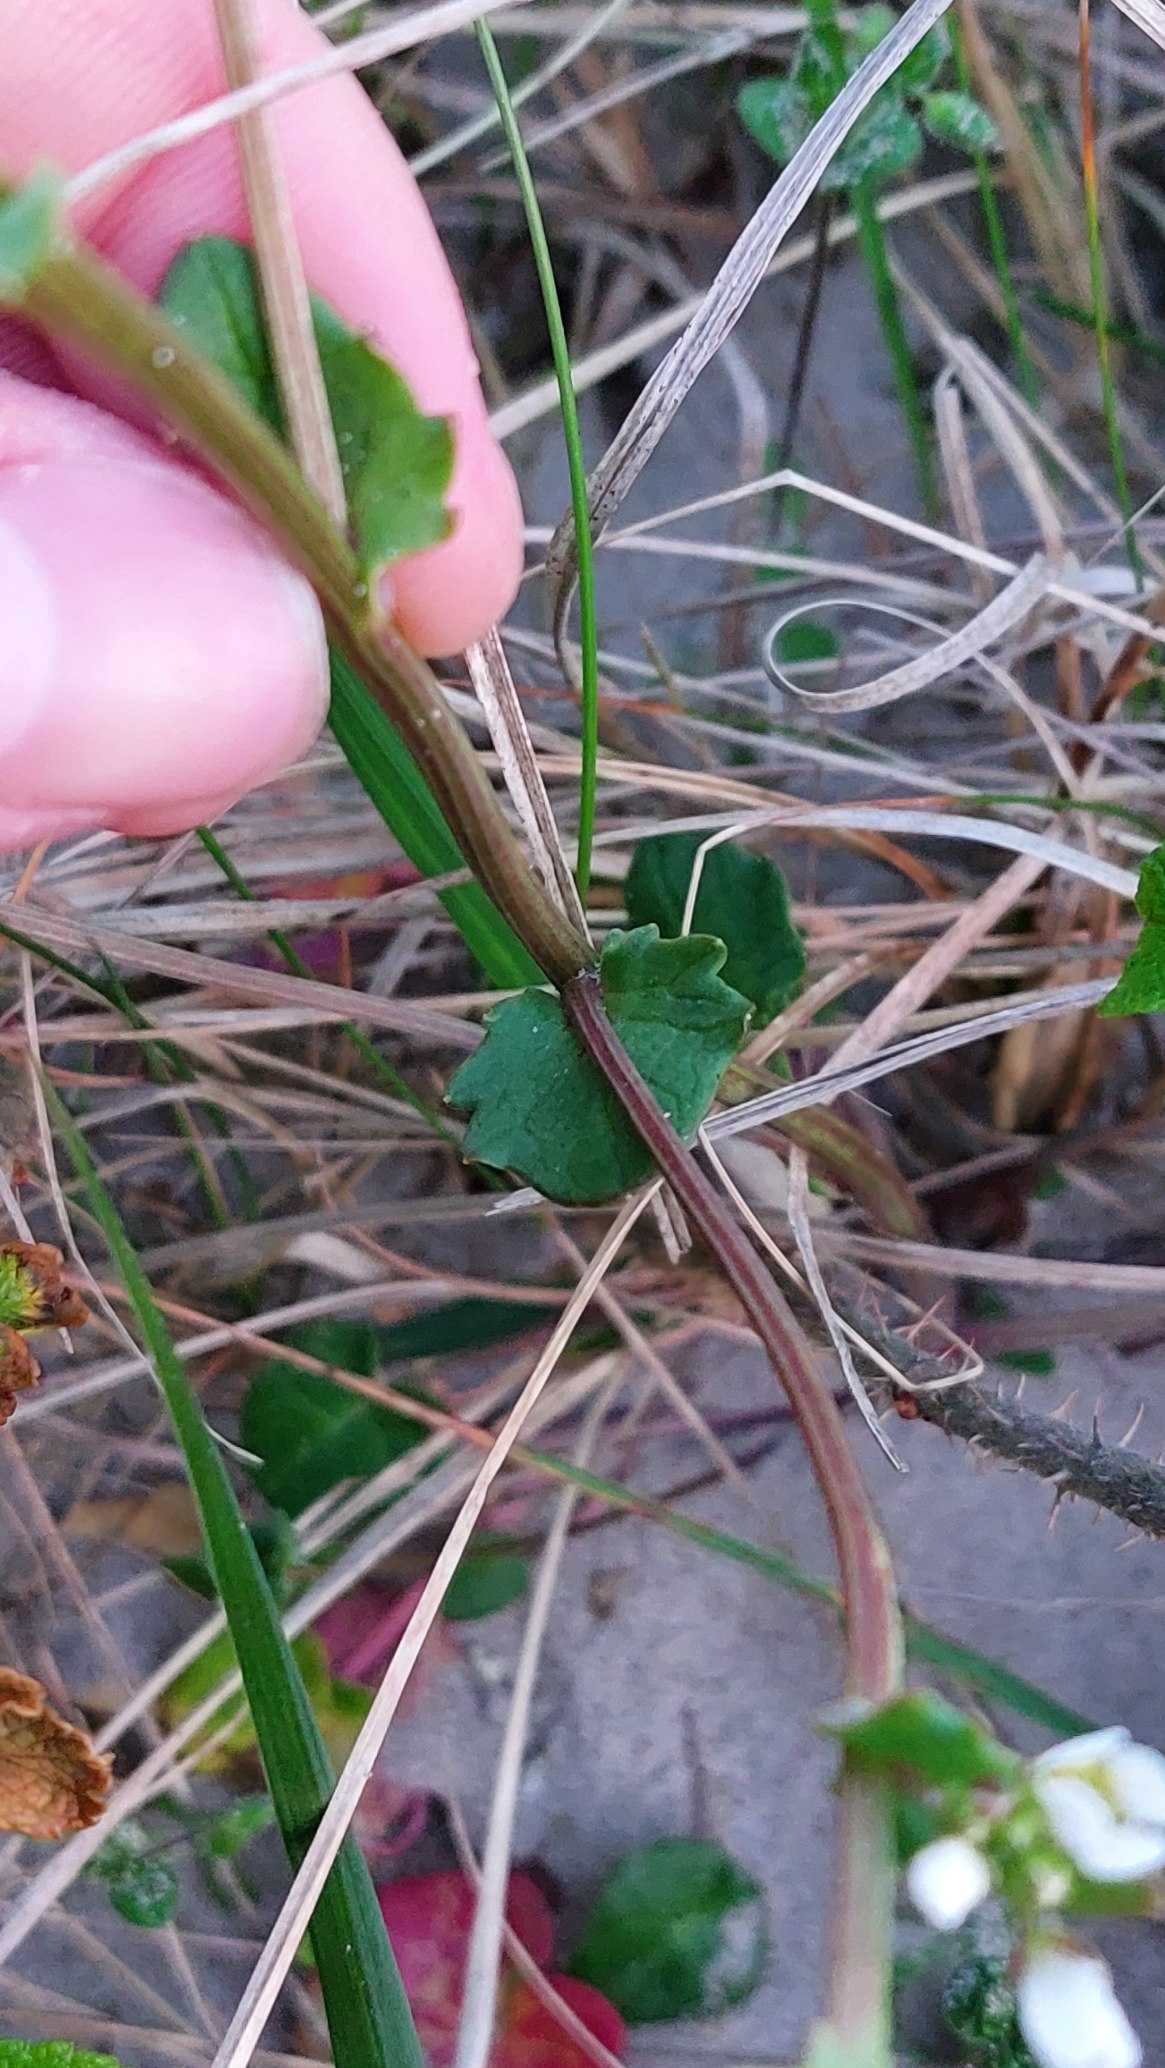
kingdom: Plantae
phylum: Tracheophyta
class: Magnoliopsida
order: Brassicales
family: Brassicaceae
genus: Cochlearia
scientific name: Cochlearia officinalis
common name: Læge-kokleare
